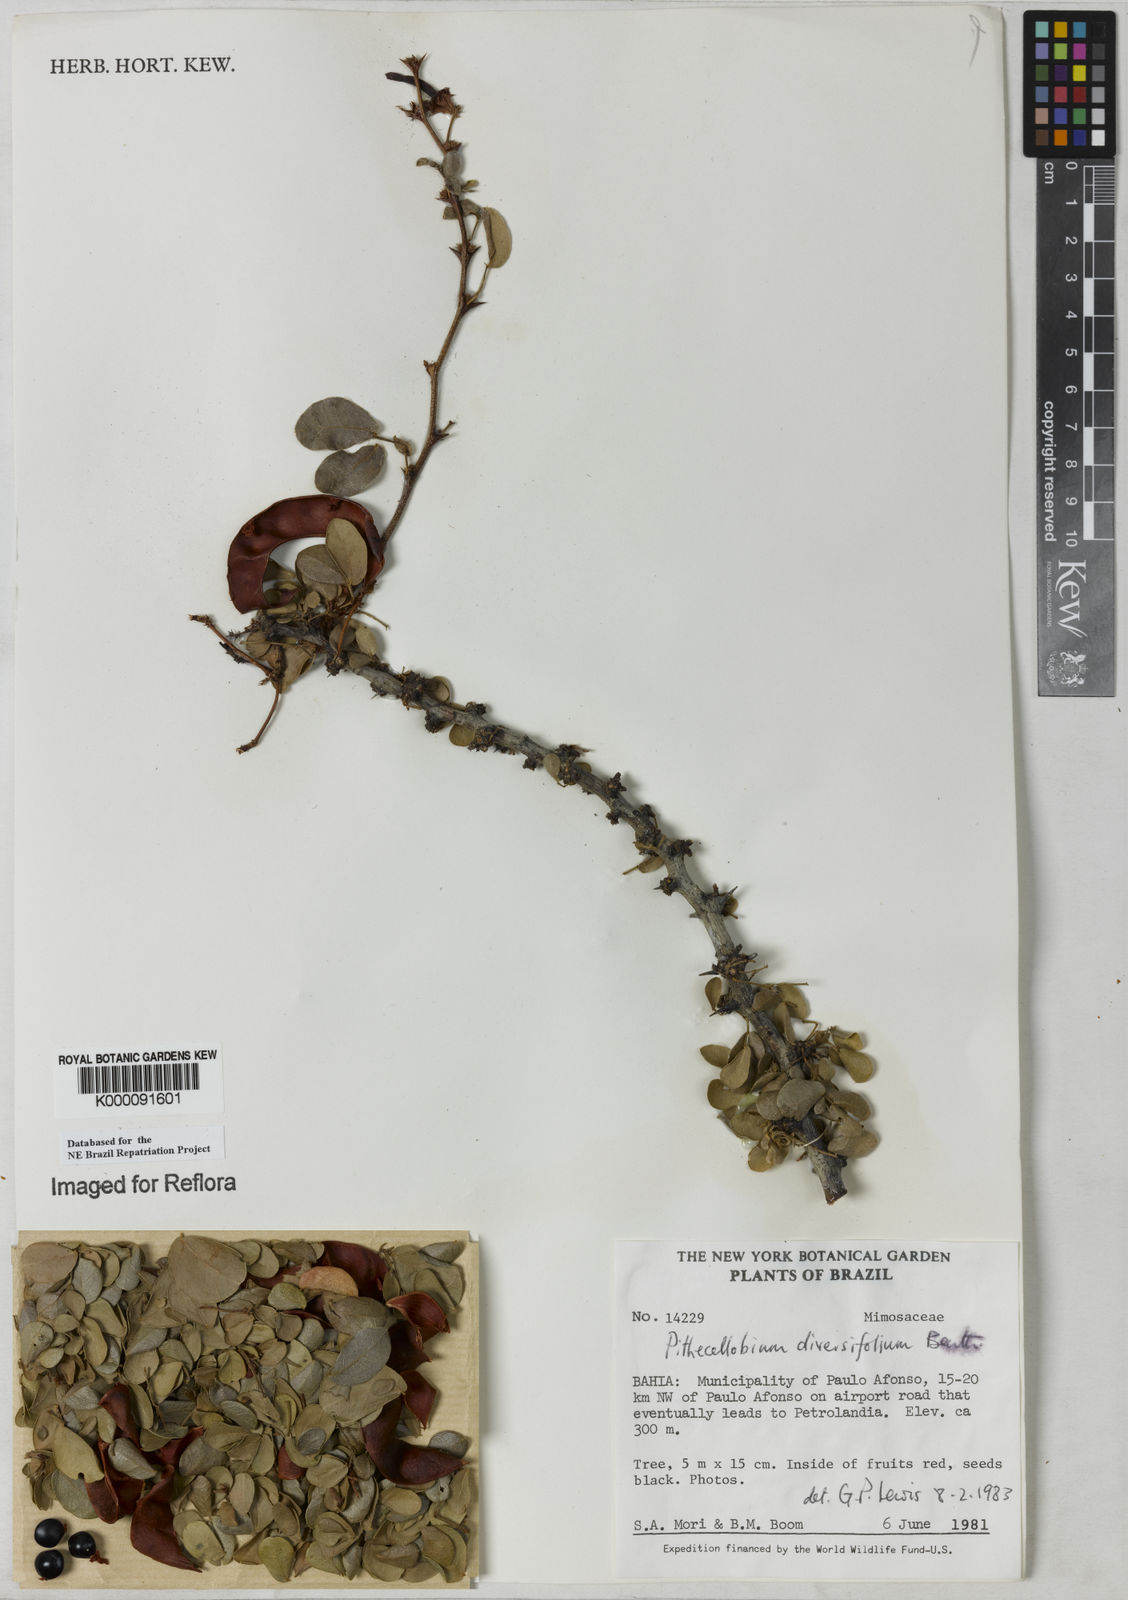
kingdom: Plantae
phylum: Tracheophyta
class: Magnoliopsida
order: Fabales
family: Fabaceae
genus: Pithecellobium
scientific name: Pithecellobium diversifolium
